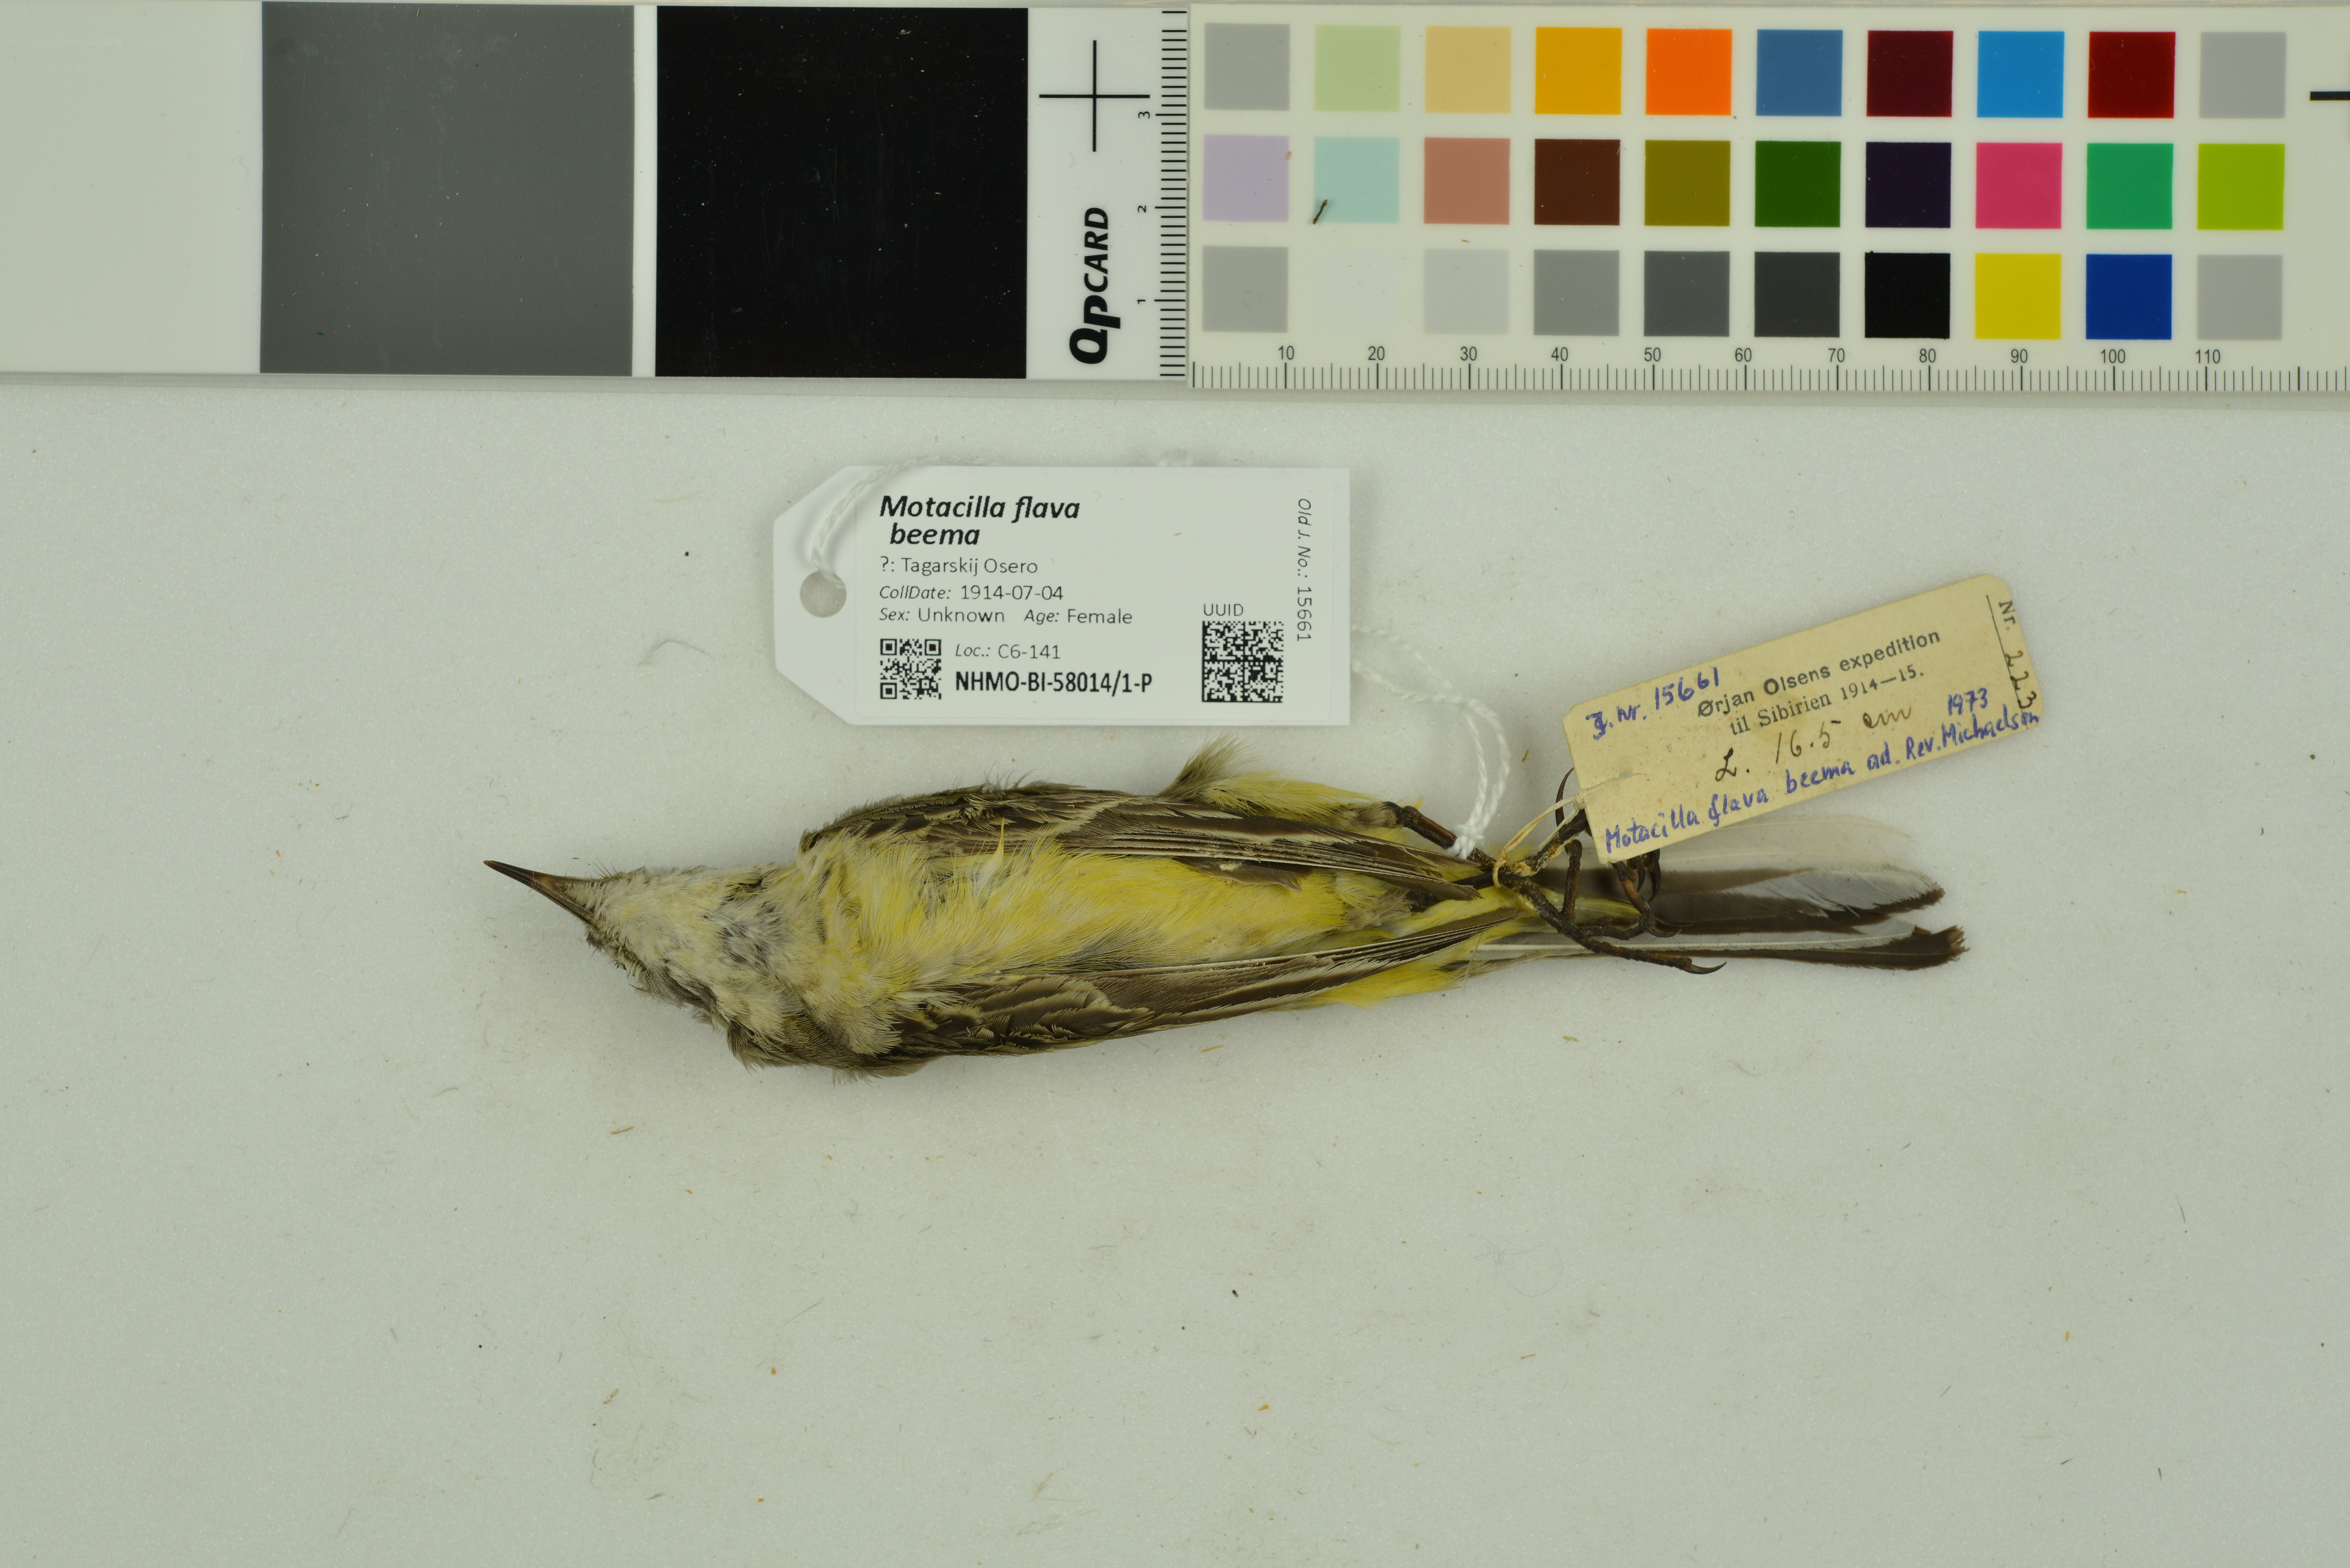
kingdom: Animalia
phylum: Chordata
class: Aves
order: Passeriformes
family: Motacillidae
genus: Motacilla
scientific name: Motacilla flava
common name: Western yellow wagtail
